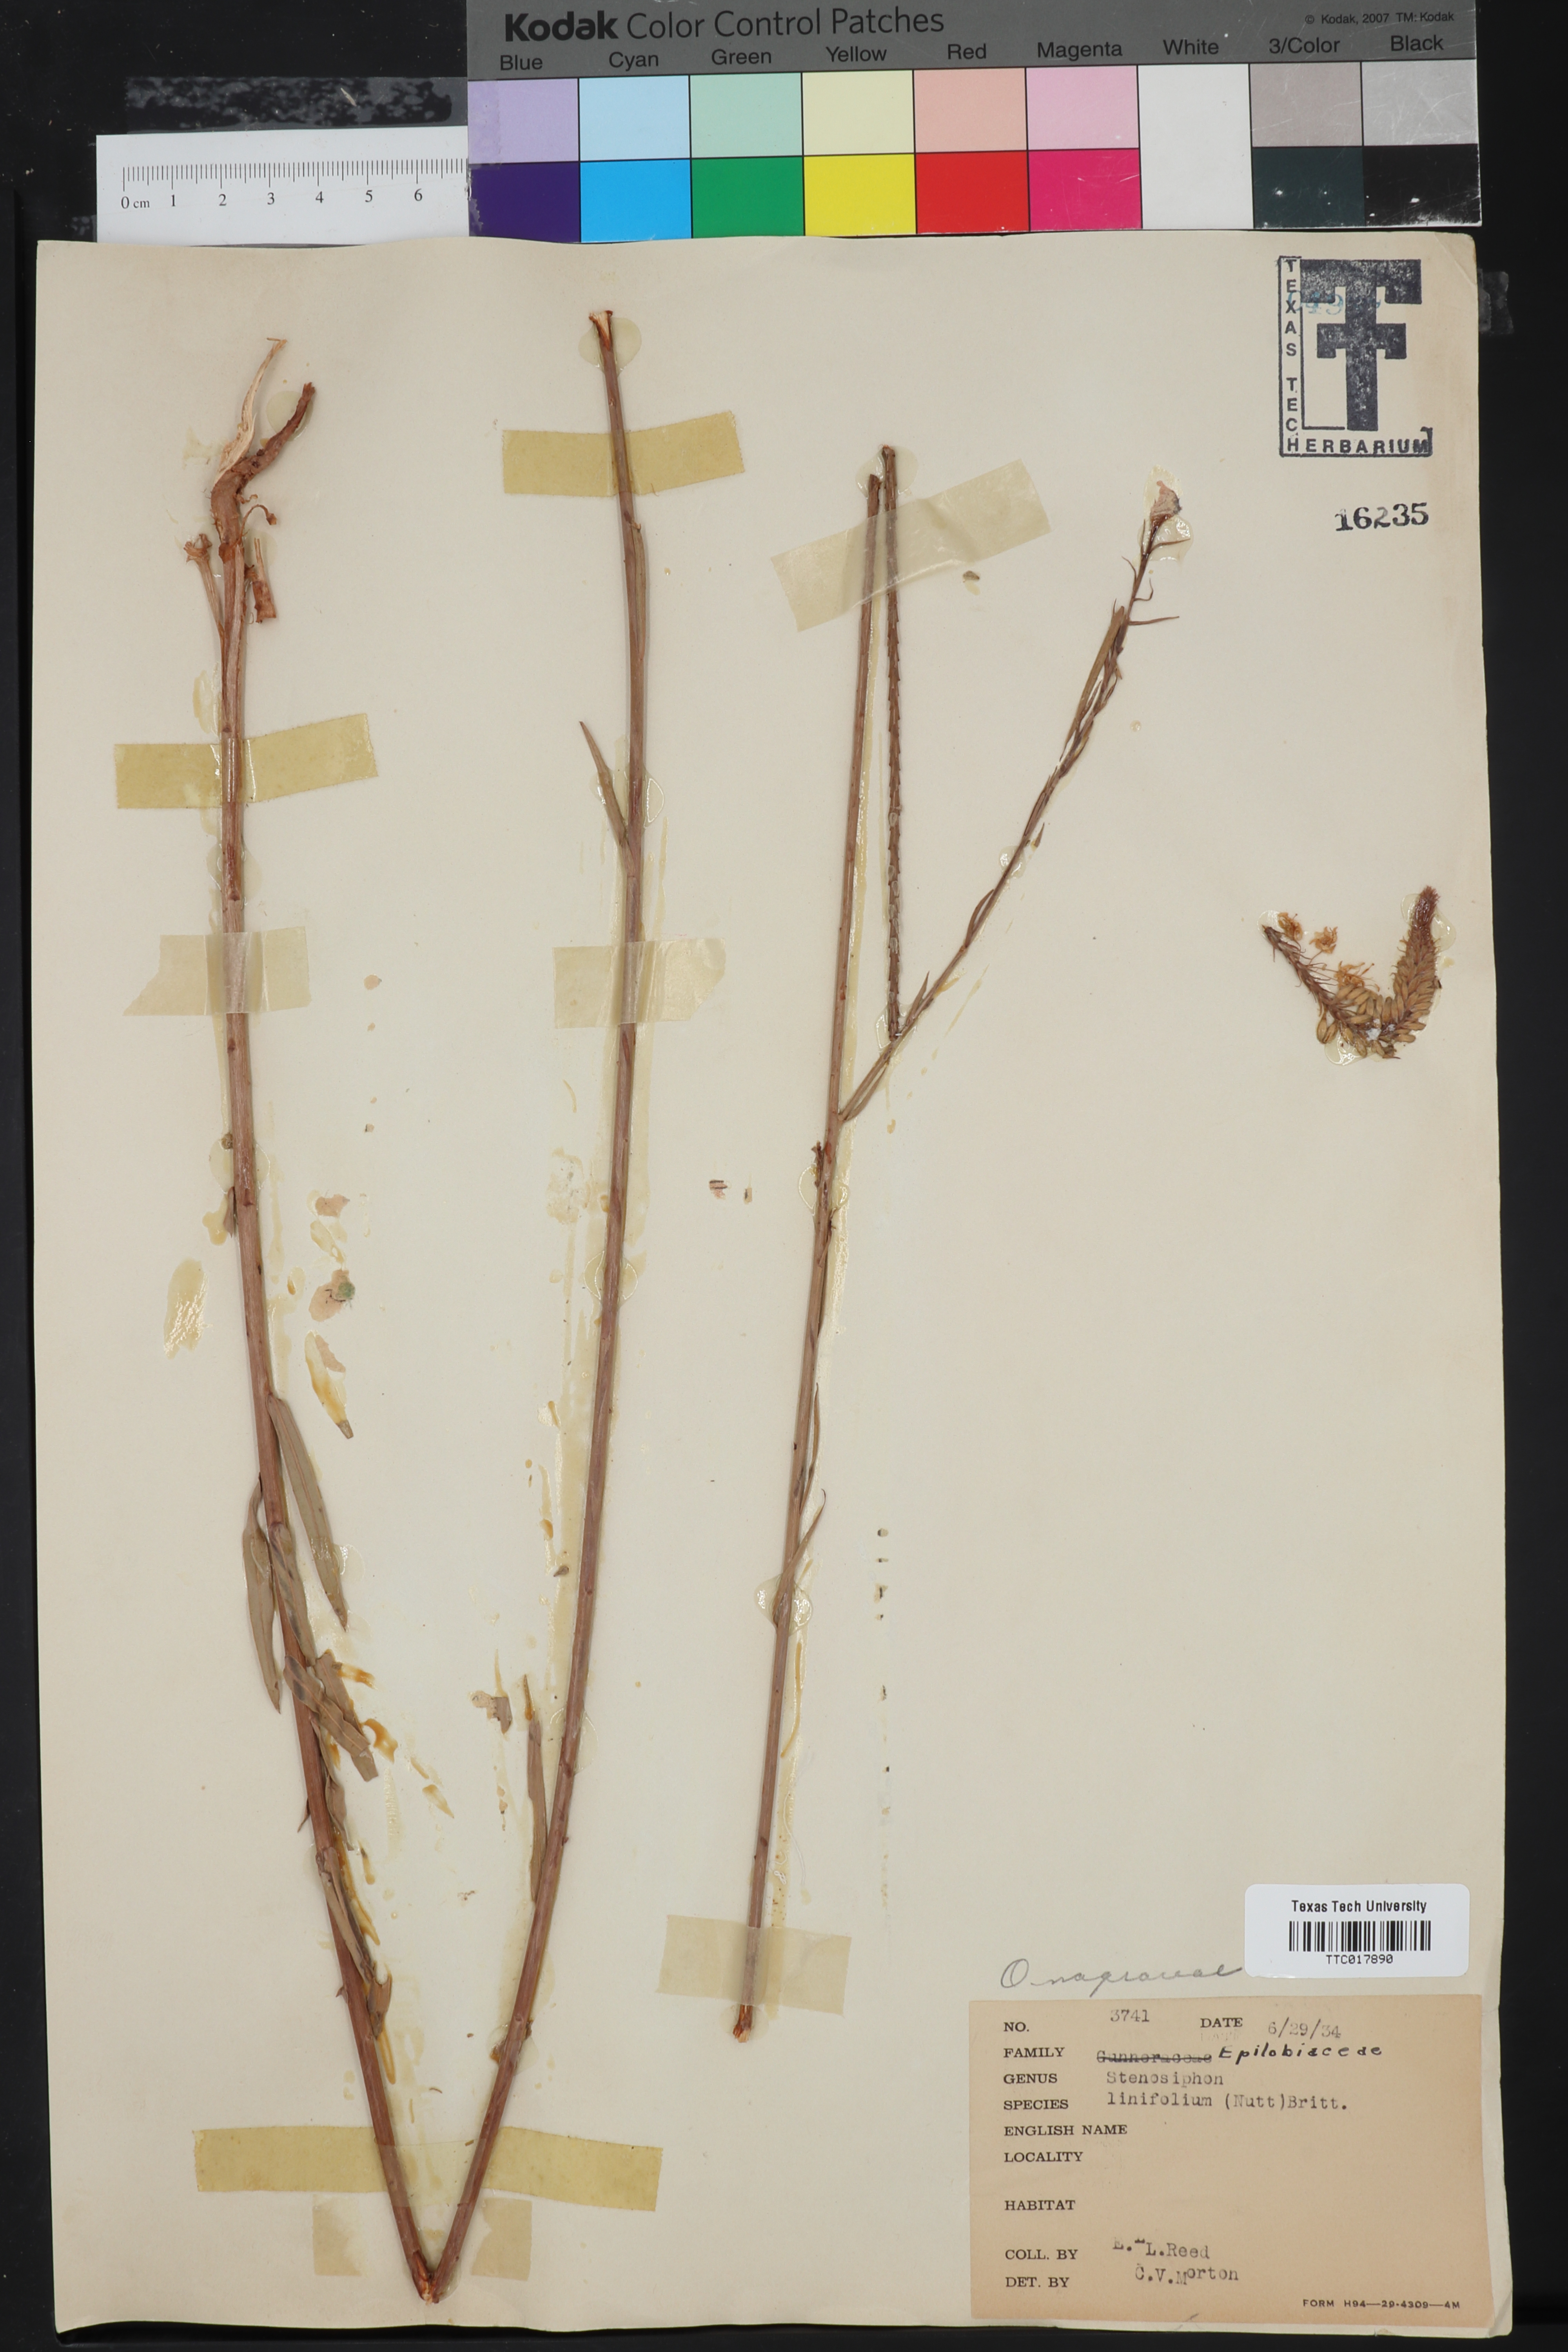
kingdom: Plantae
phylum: Tracheophyta
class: Magnoliopsida
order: Myrtales
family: Onagraceae
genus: Oenothera
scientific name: Oenothera glaucifolia
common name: False gaura
